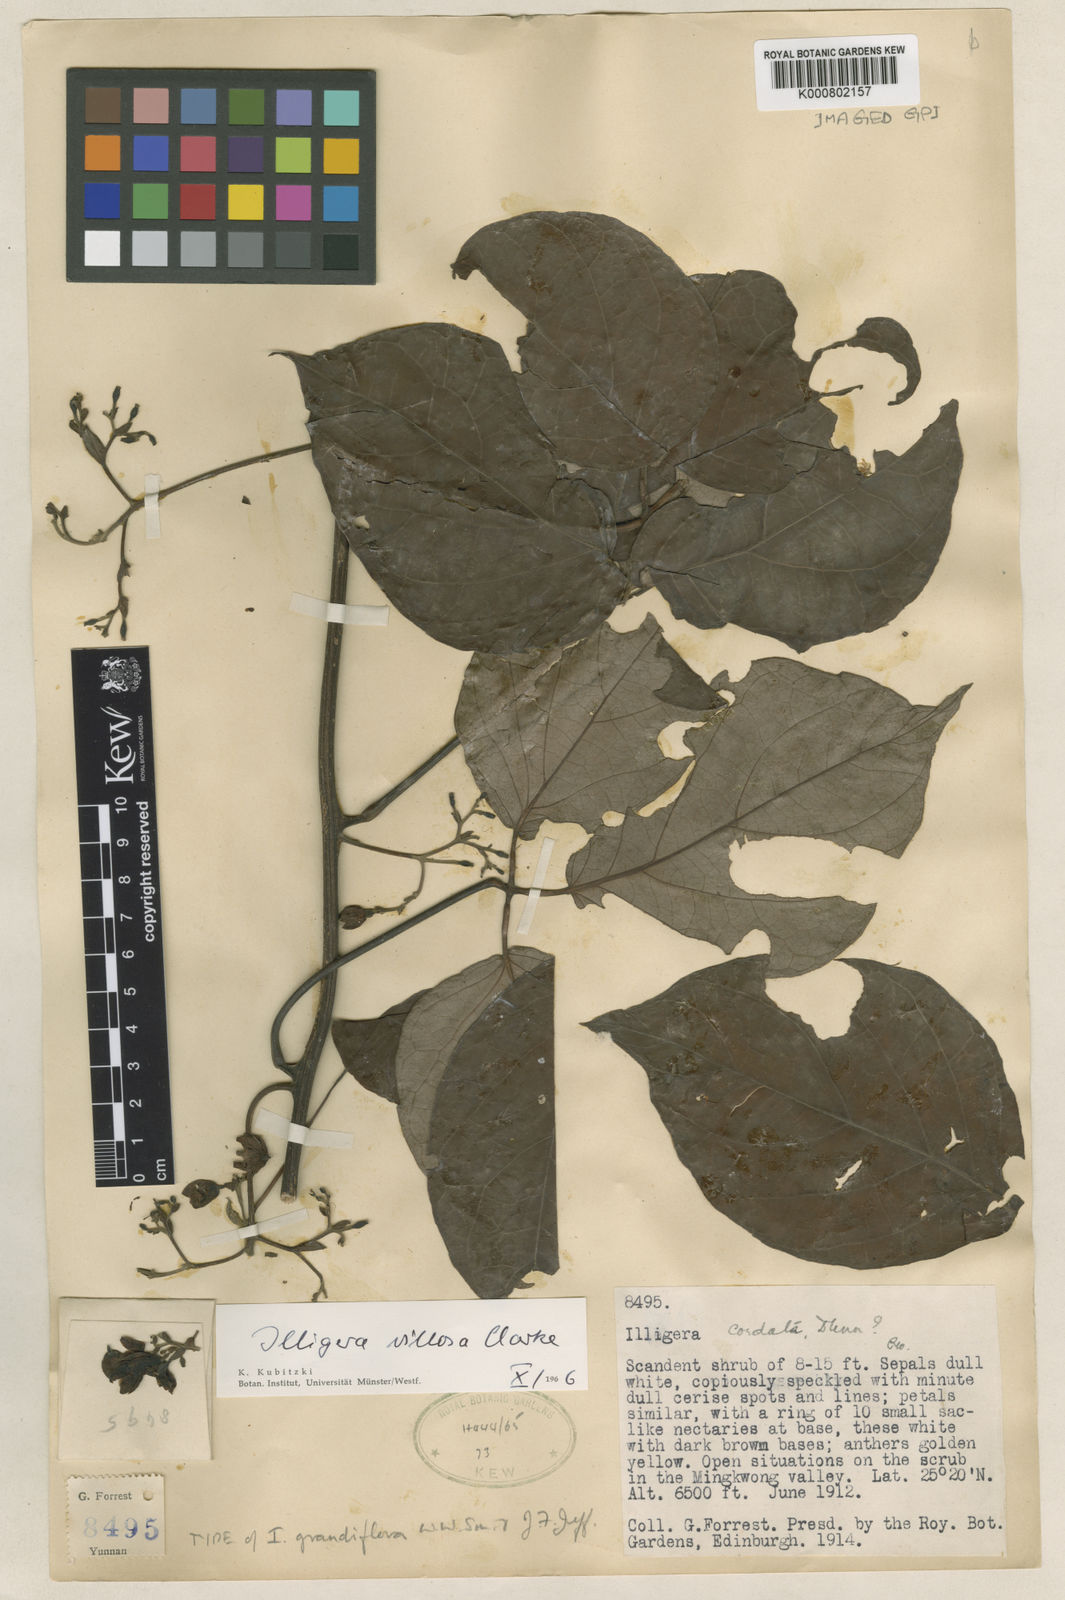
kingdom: Plantae
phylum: Tracheophyta
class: Magnoliopsida
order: Laurales
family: Hernandiaceae
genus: Illigera
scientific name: Illigera villosa
